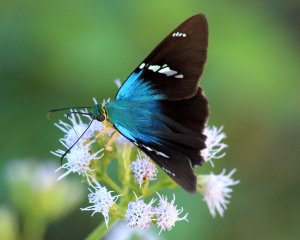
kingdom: Animalia
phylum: Arthropoda
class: Insecta
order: Lepidoptera
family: Hesperiidae
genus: Astraptes
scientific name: Astraptes fulgerator
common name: Two-barred Flasher
